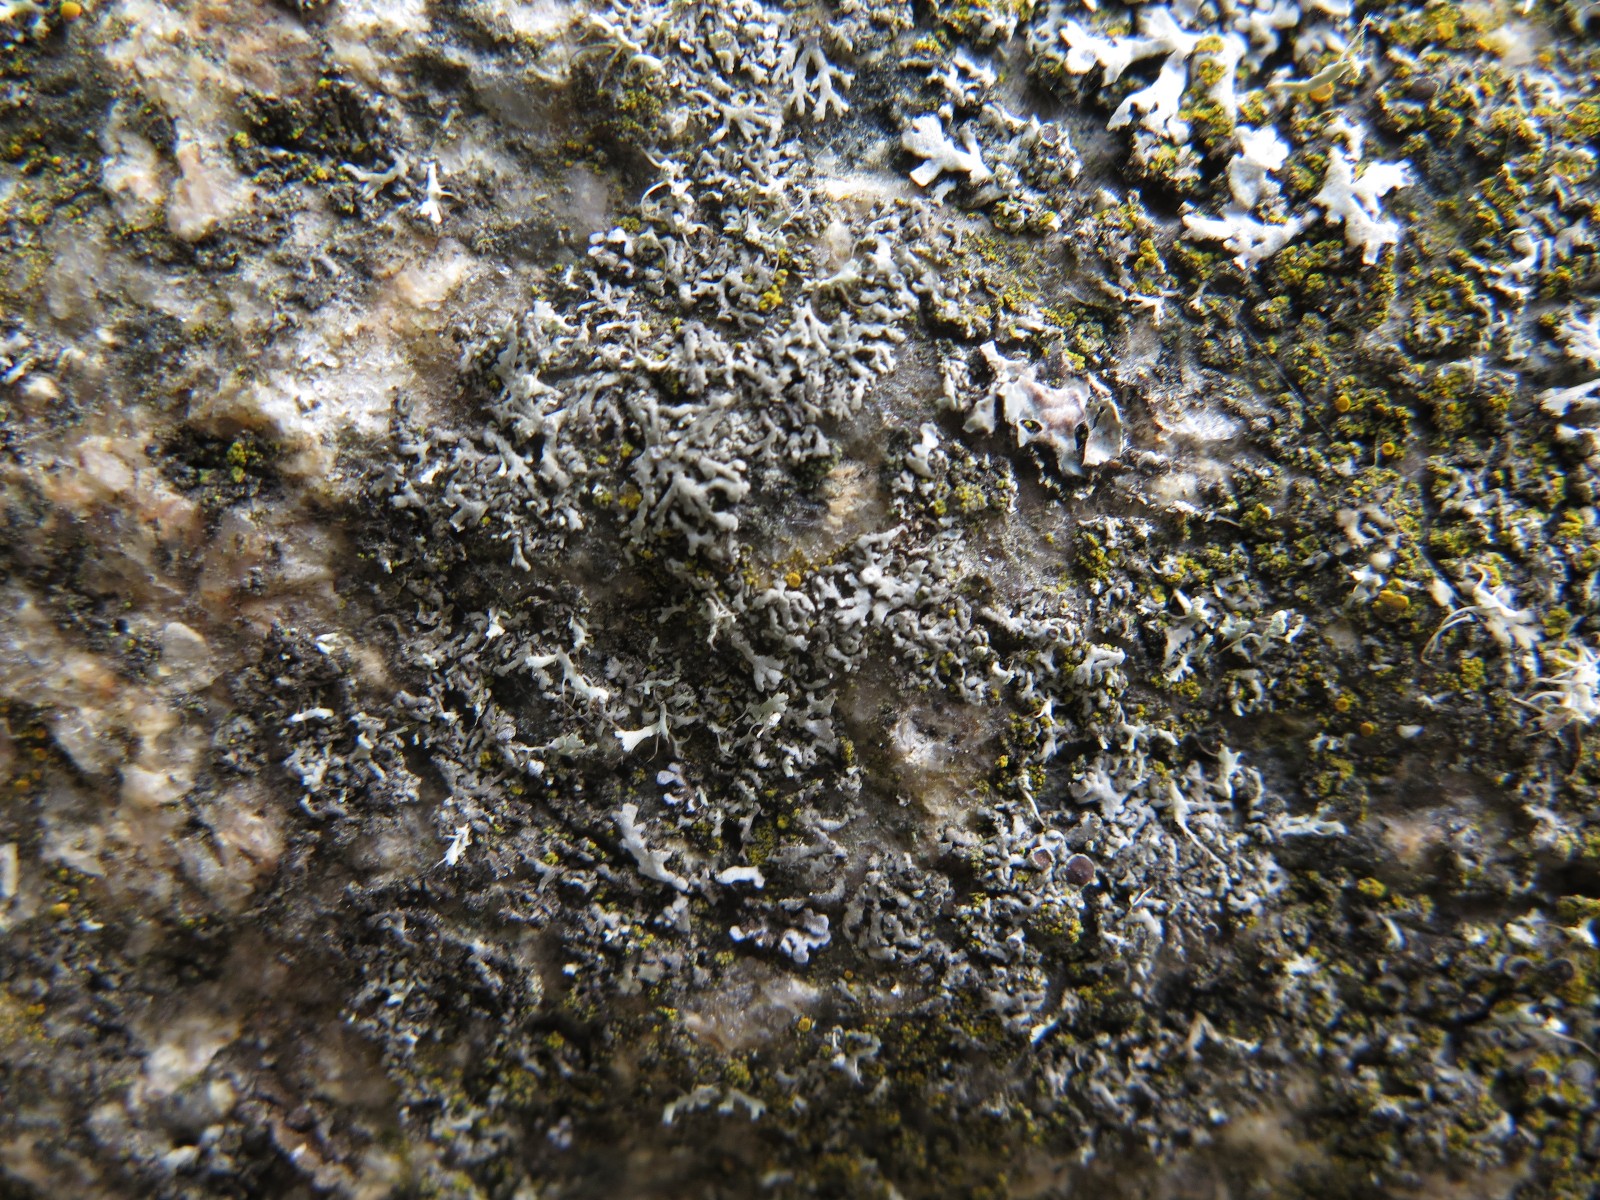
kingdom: Fungi
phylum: Ascomycota
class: Lecanoromycetes
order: Caliciales
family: Physciaceae
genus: Physcia
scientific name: Physcia tenella
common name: spæd rosetlav
